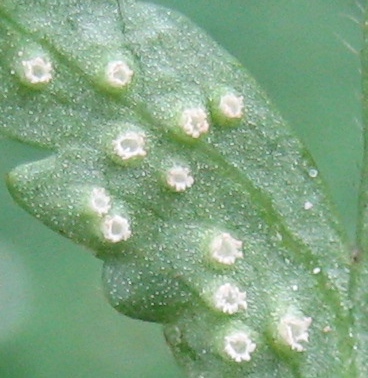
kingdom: Fungi
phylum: Basidiomycota
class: Pucciniomycetes
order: Pucciniales
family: Ochropsoraceae
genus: Ochropsora
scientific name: Ochropsora ariae
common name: anemone-okkerpletrust
